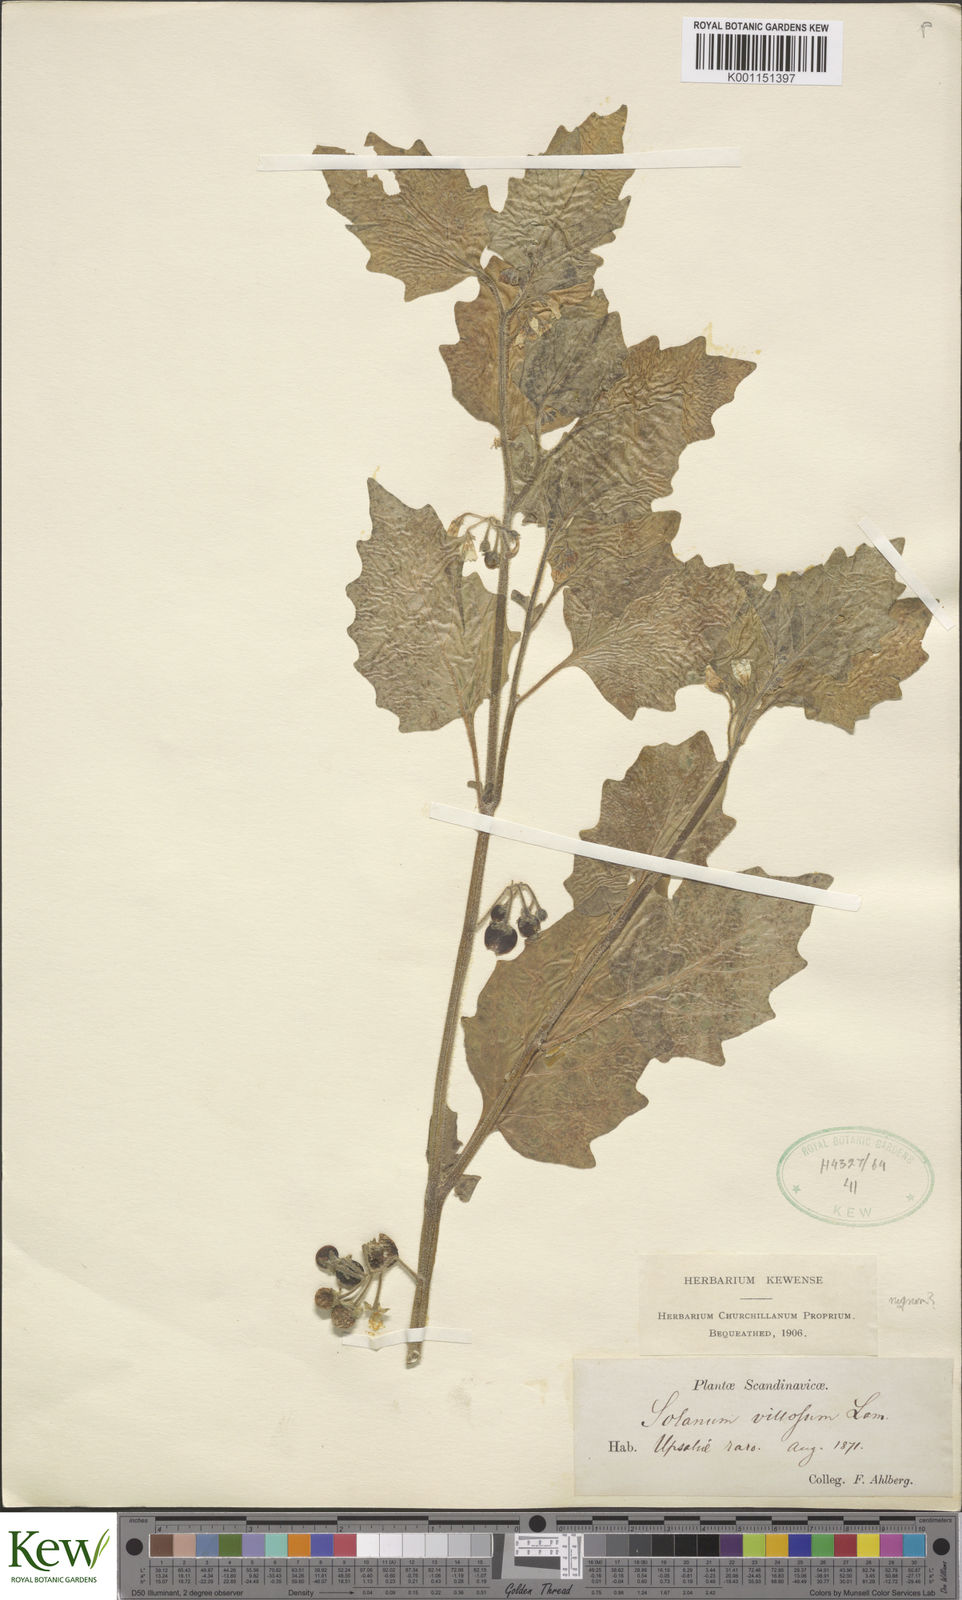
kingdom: Plantae
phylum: Tracheophyta
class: Magnoliopsida
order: Solanales
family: Solanaceae
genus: Solanum
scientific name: Solanum villosum
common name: Red nightshade
